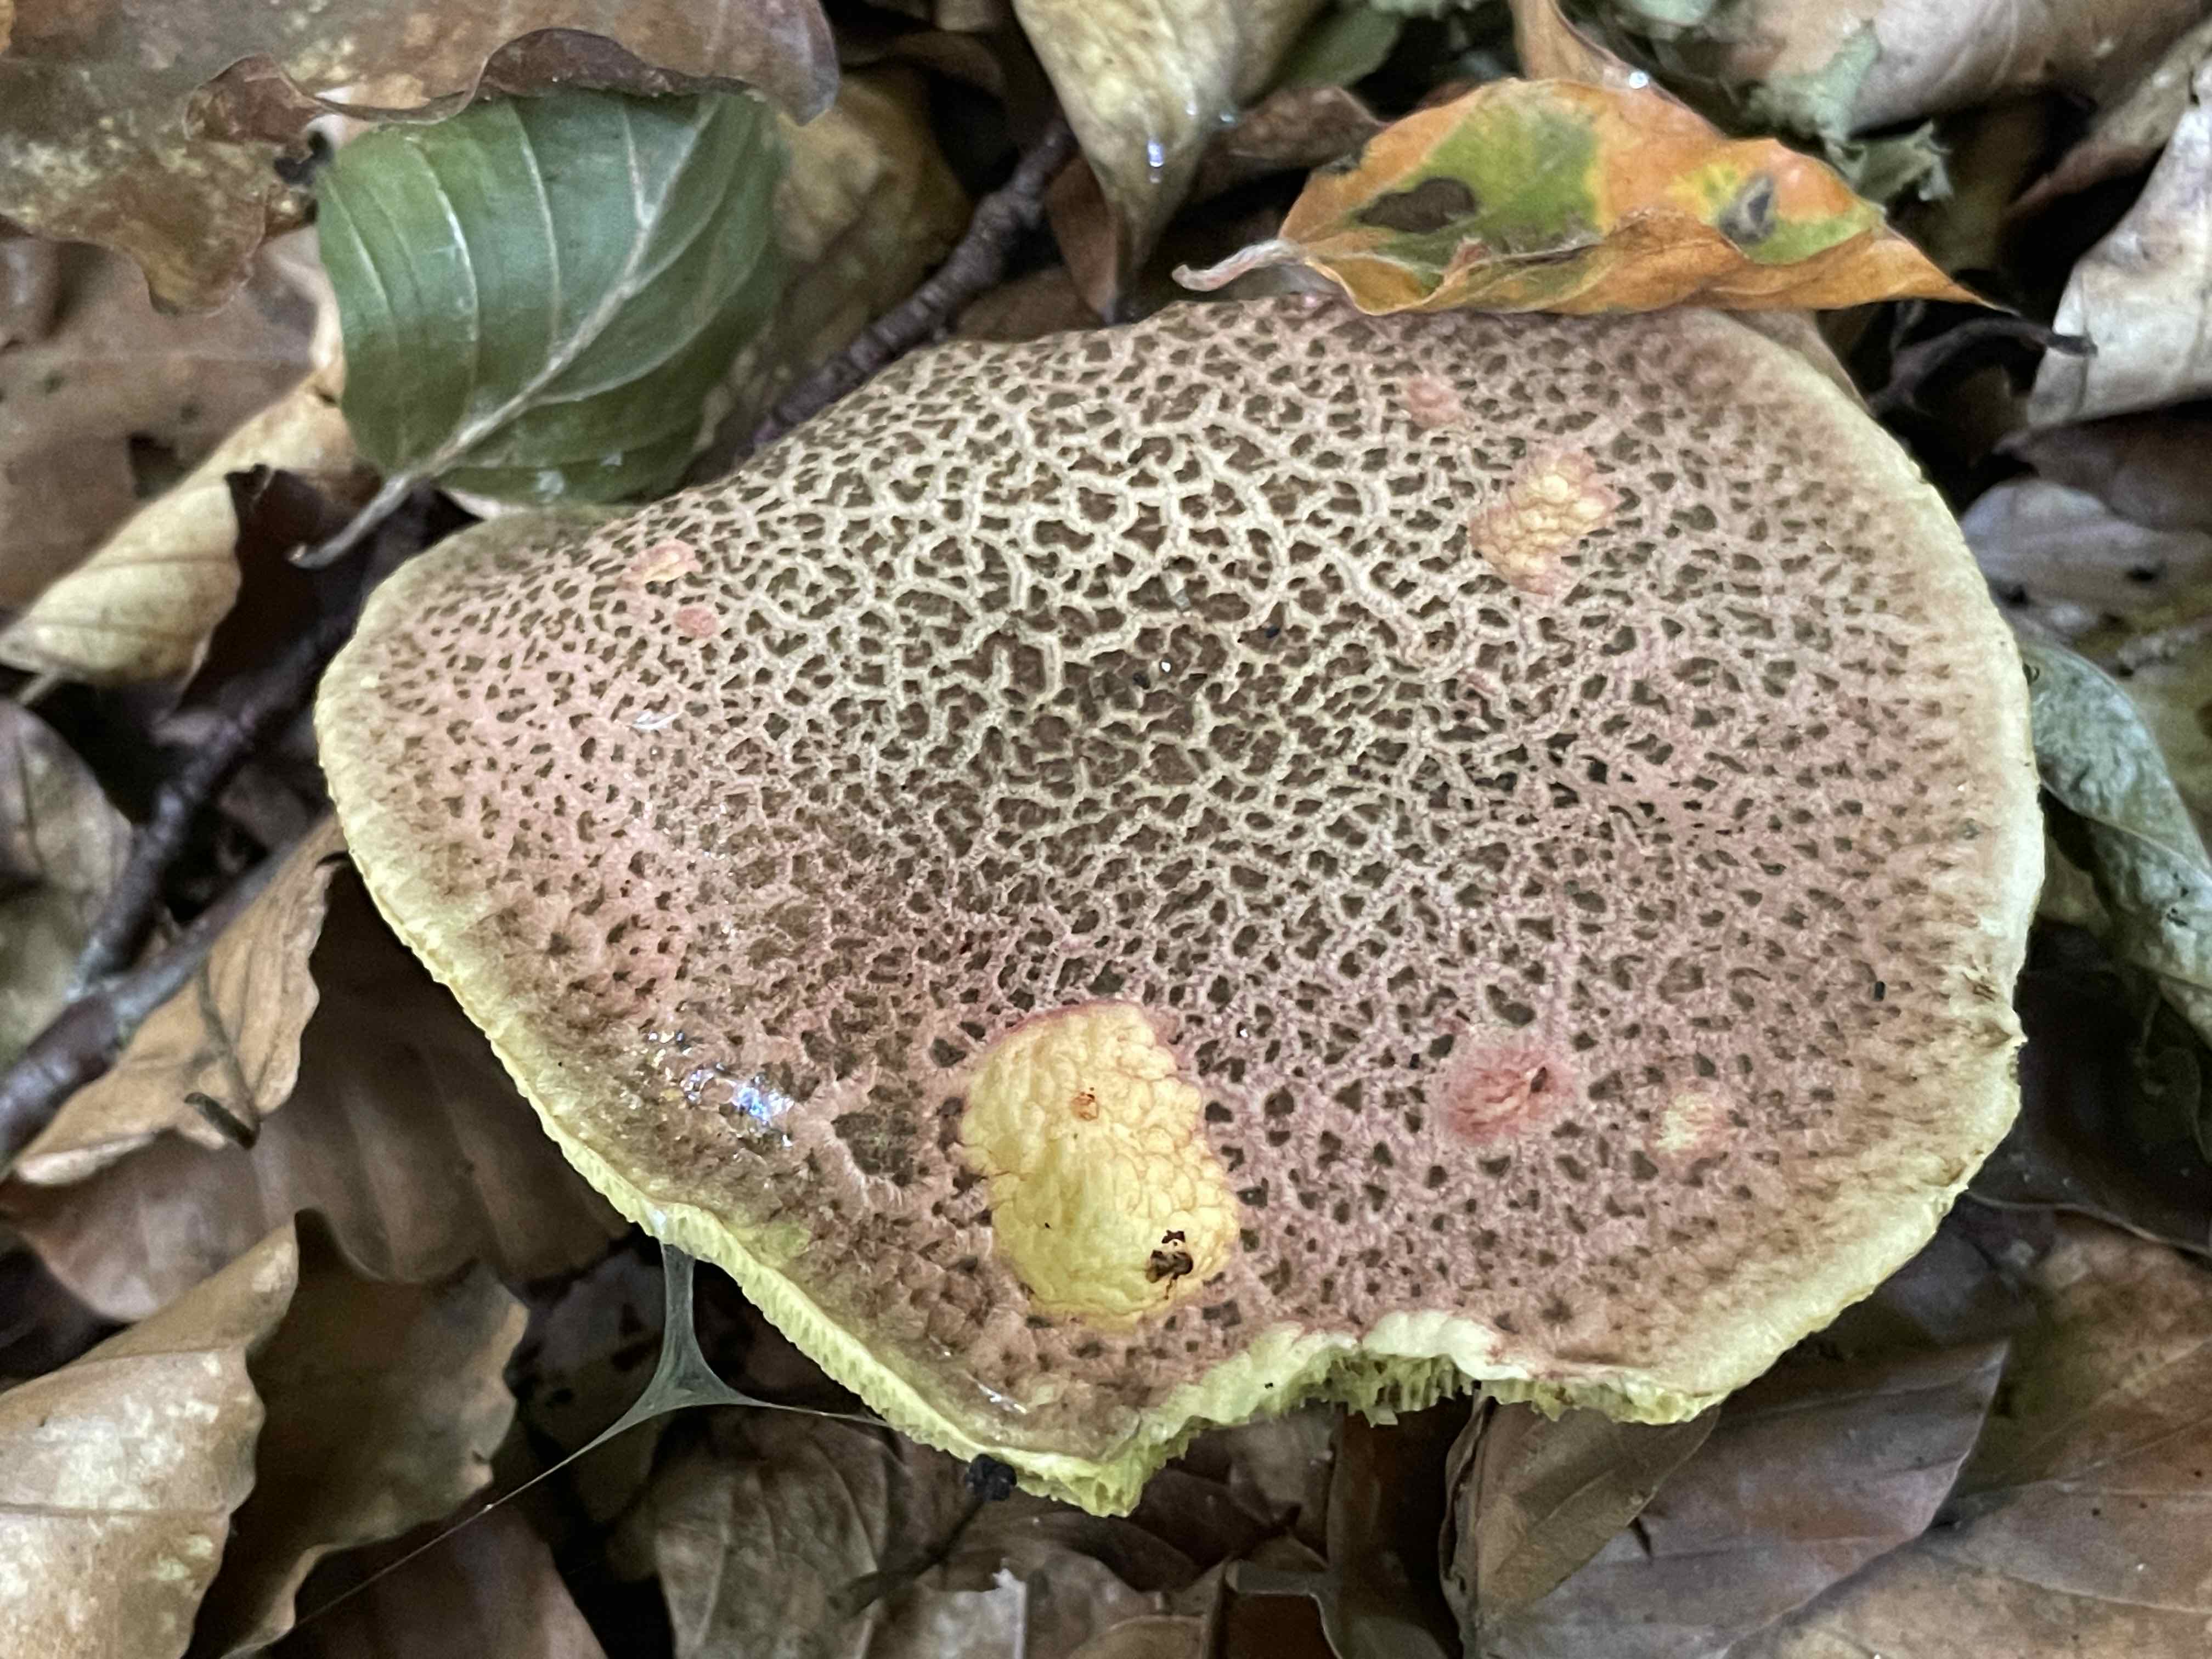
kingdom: Fungi
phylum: Basidiomycota
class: Agaricomycetes
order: Boletales
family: Boletaceae
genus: Xerocomellus
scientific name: Xerocomellus chrysenteron
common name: rødsprukken rørhat
